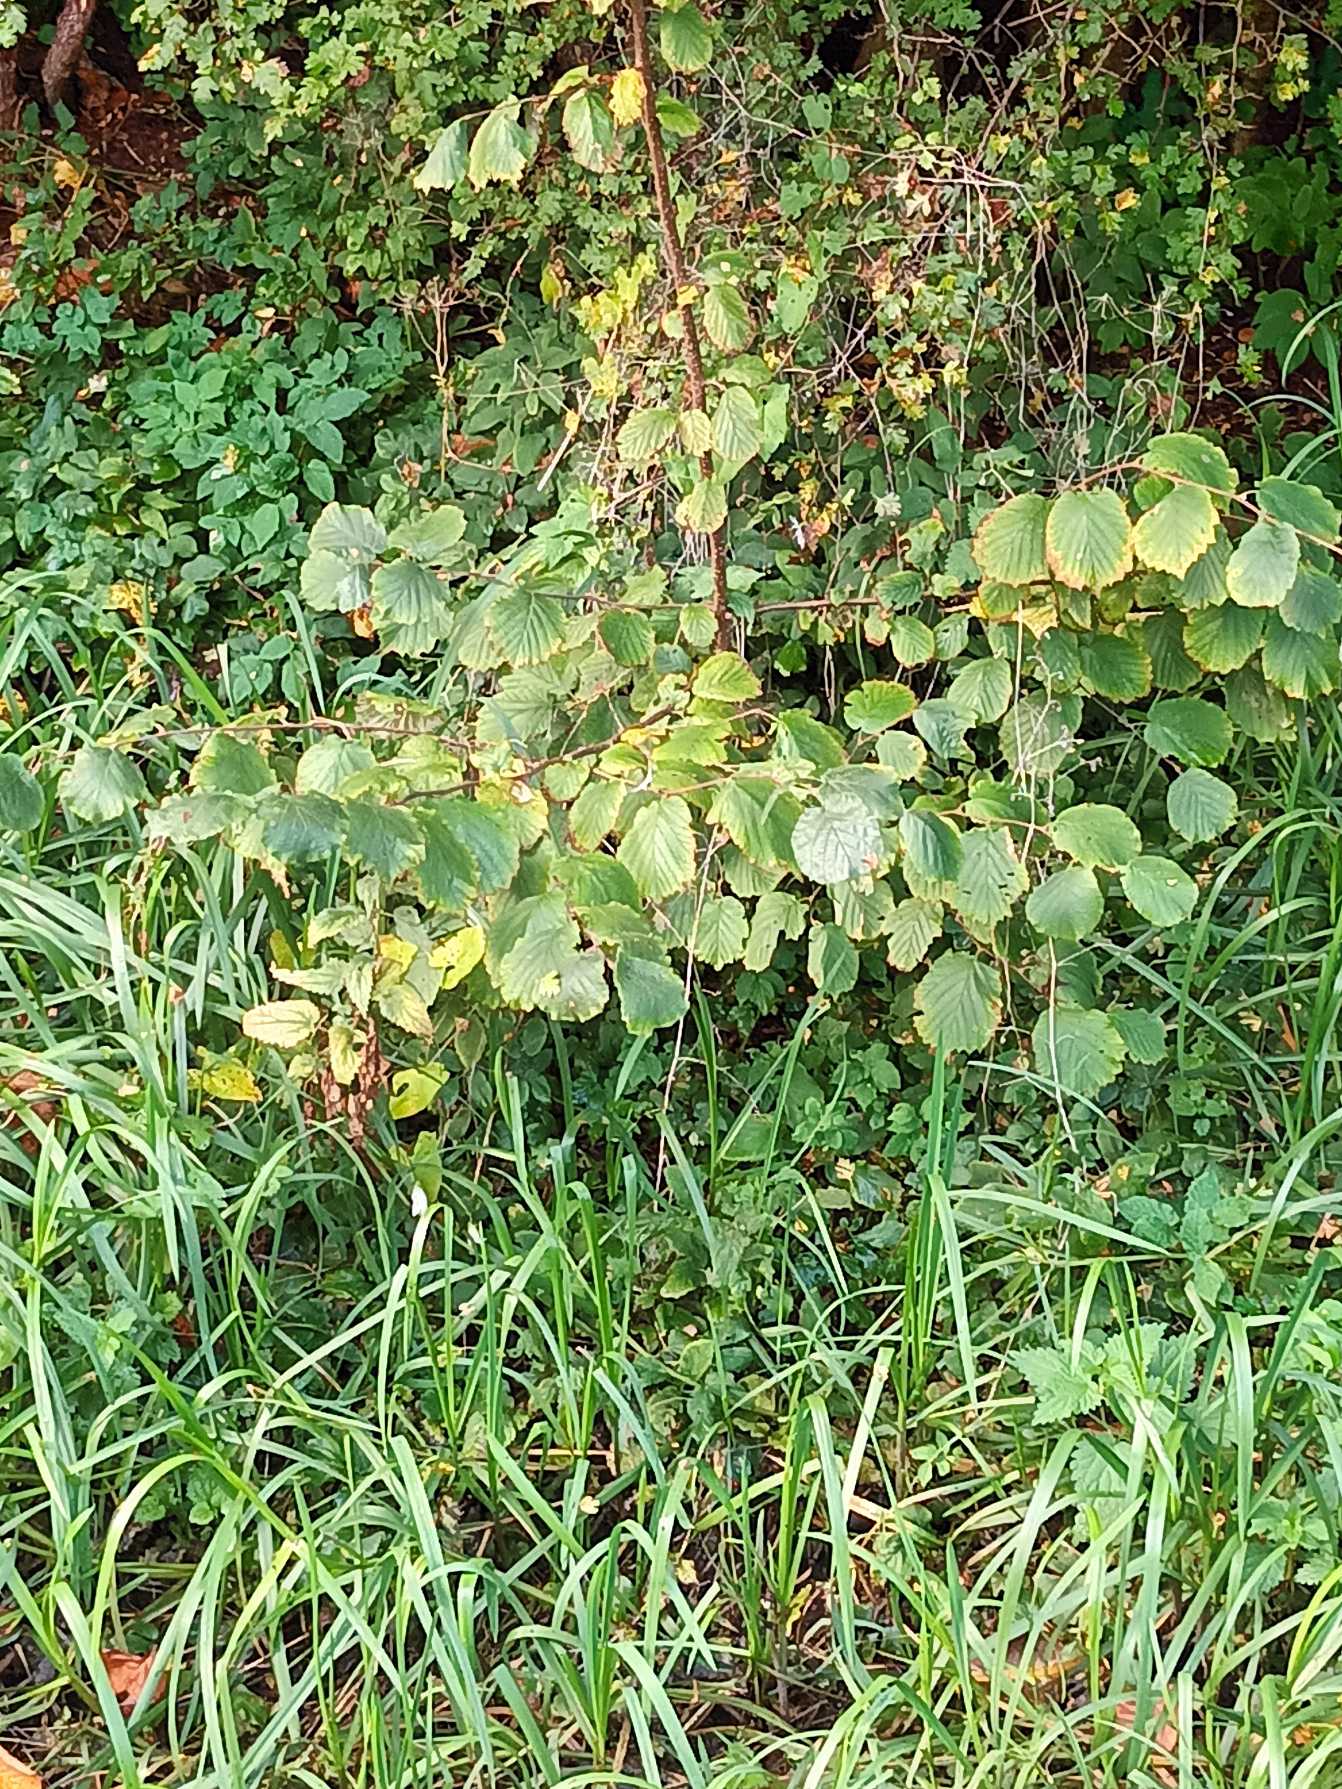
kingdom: Plantae
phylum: Tracheophyta
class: Magnoliopsida
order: Fagales
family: Betulaceae
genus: Corylus
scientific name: Corylus avellana
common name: Hassel
